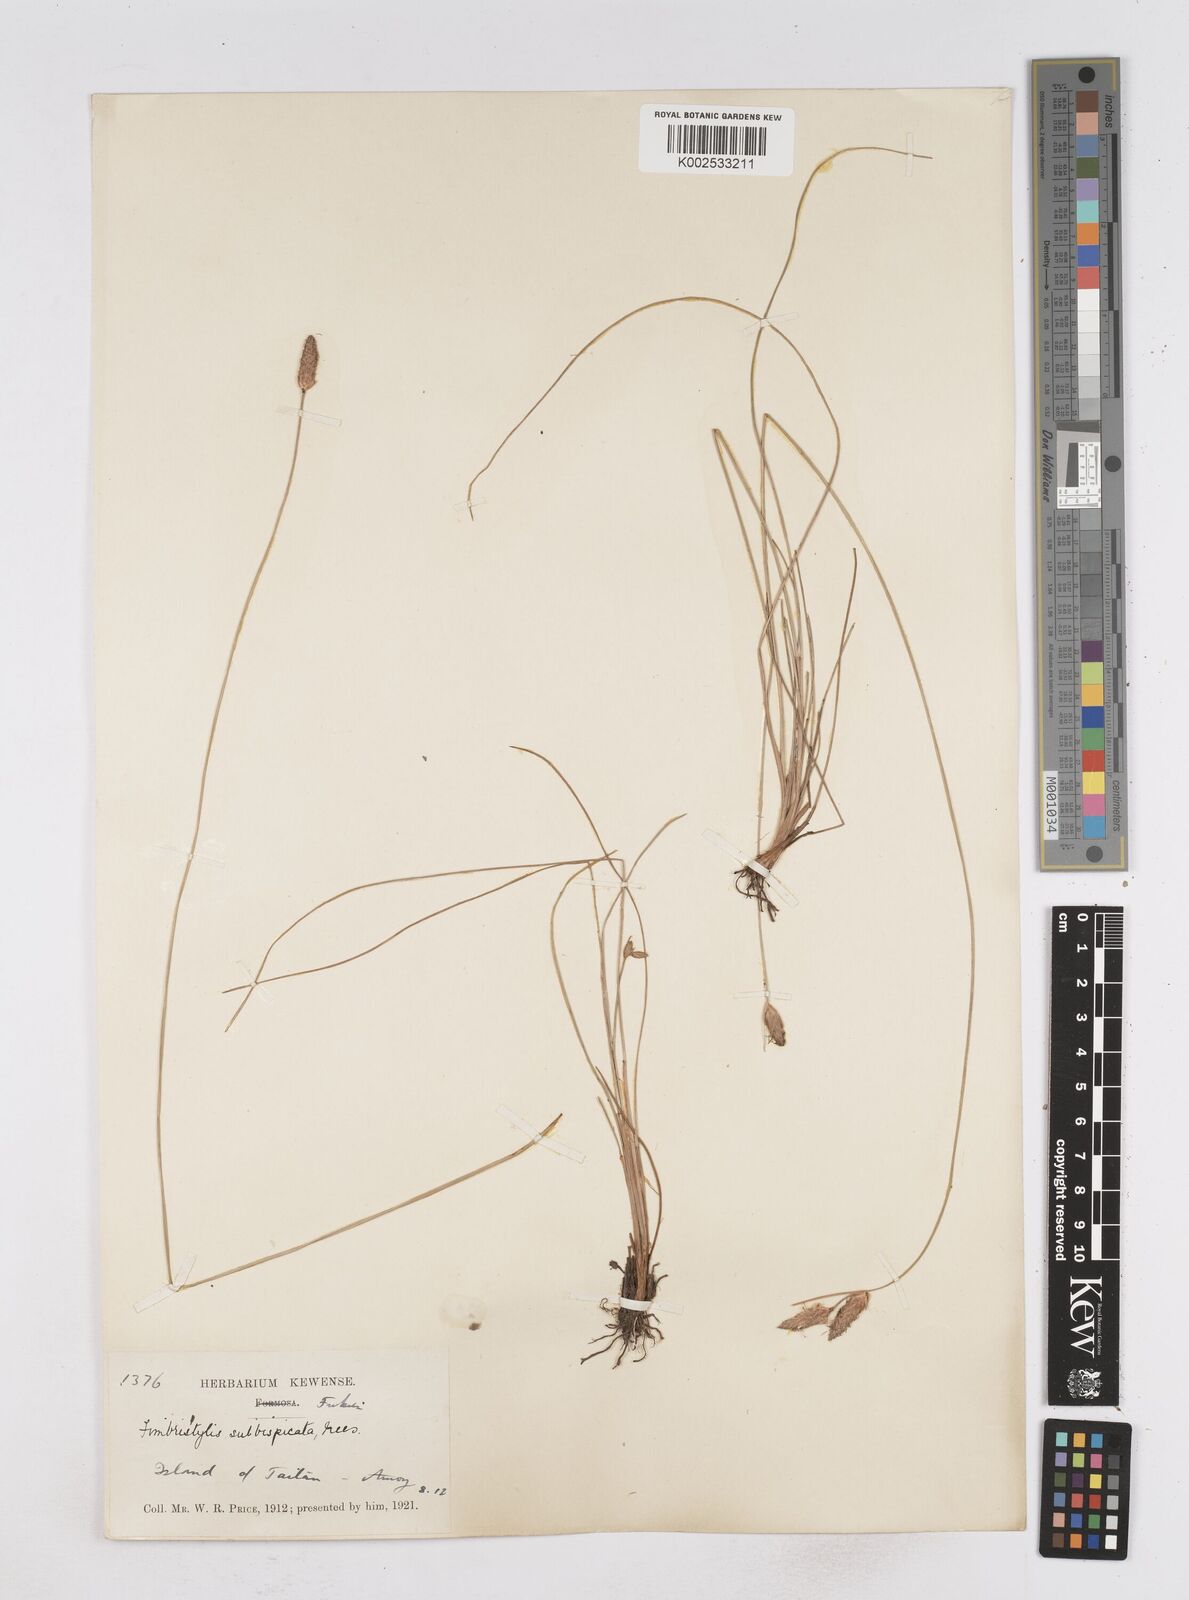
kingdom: Plantae
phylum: Tracheophyta
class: Liliopsida
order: Poales
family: Cyperaceae
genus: Fimbristylis
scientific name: Fimbristylis tristachya
